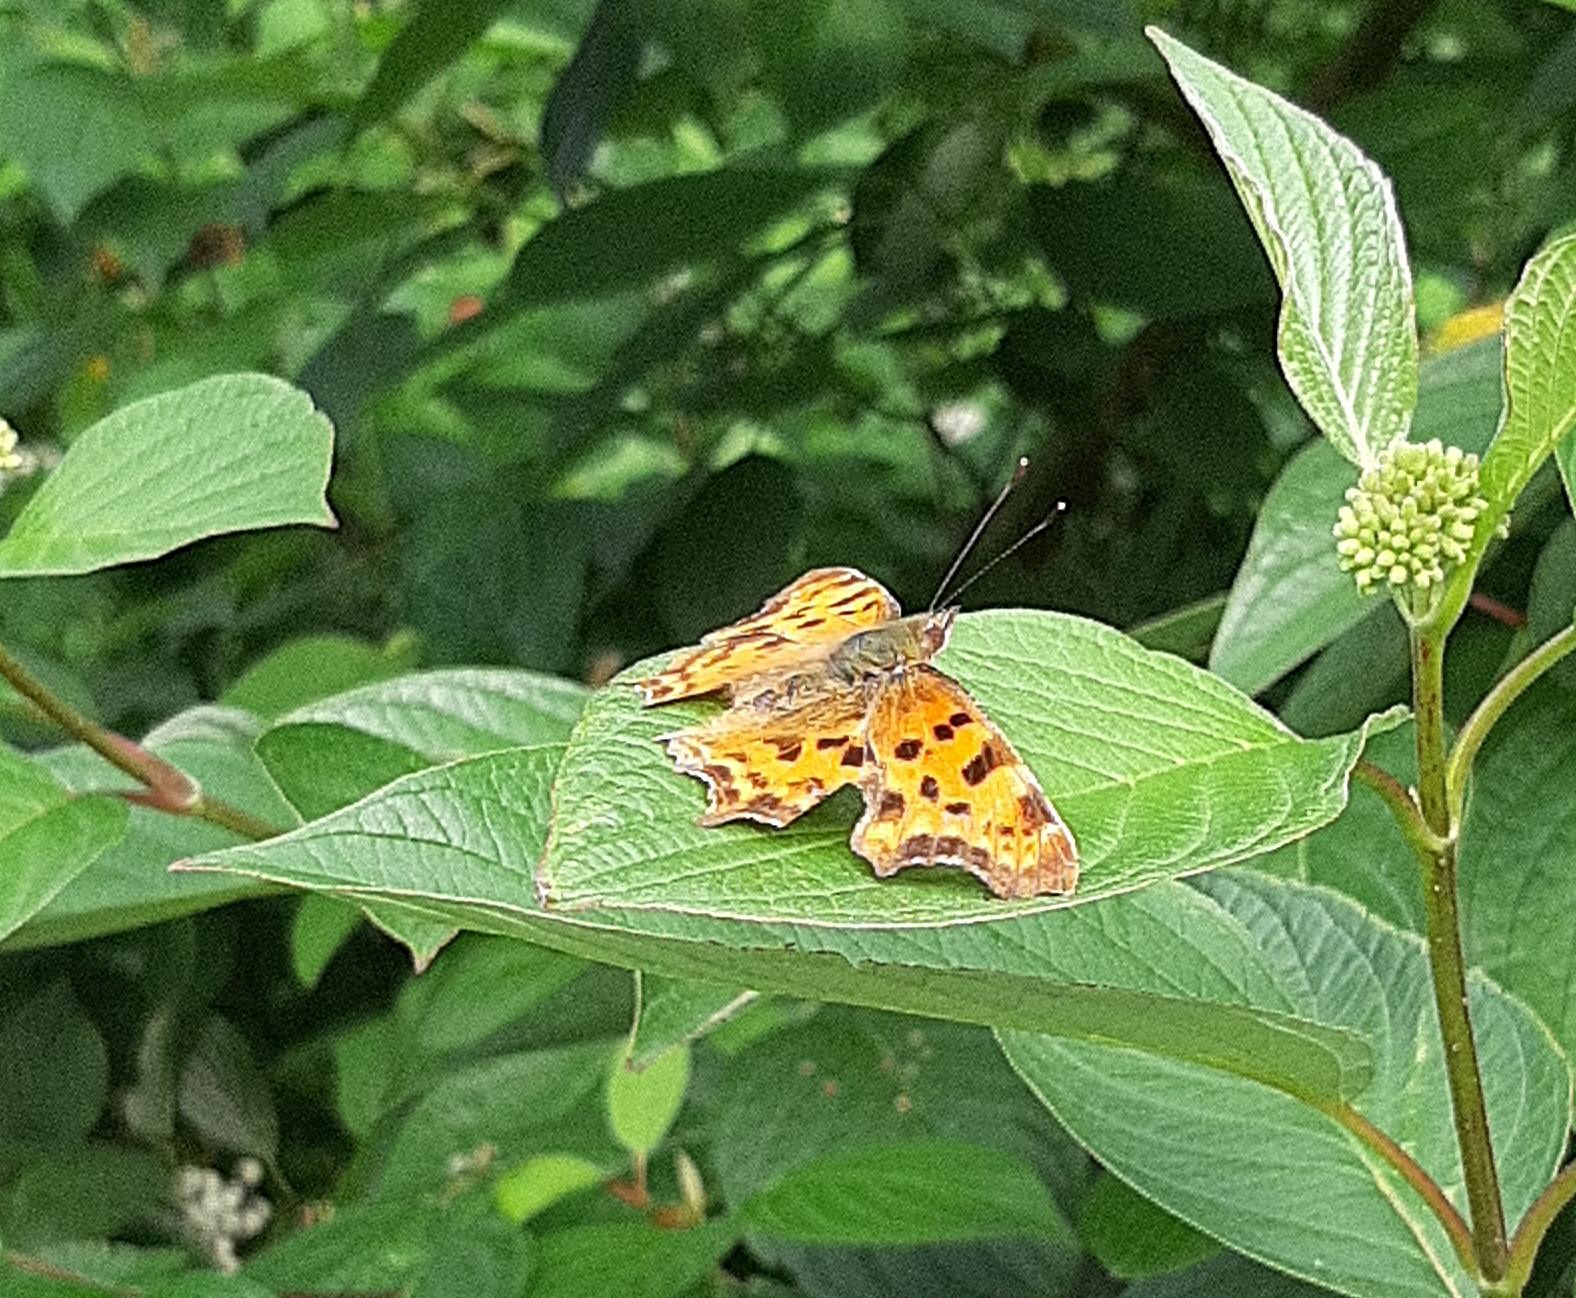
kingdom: Animalia
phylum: Arthropoda
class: Insecta
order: Lepidoptera
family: Nymphalidae
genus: Polygonia
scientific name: Polygonia c-album
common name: Det hvide C
